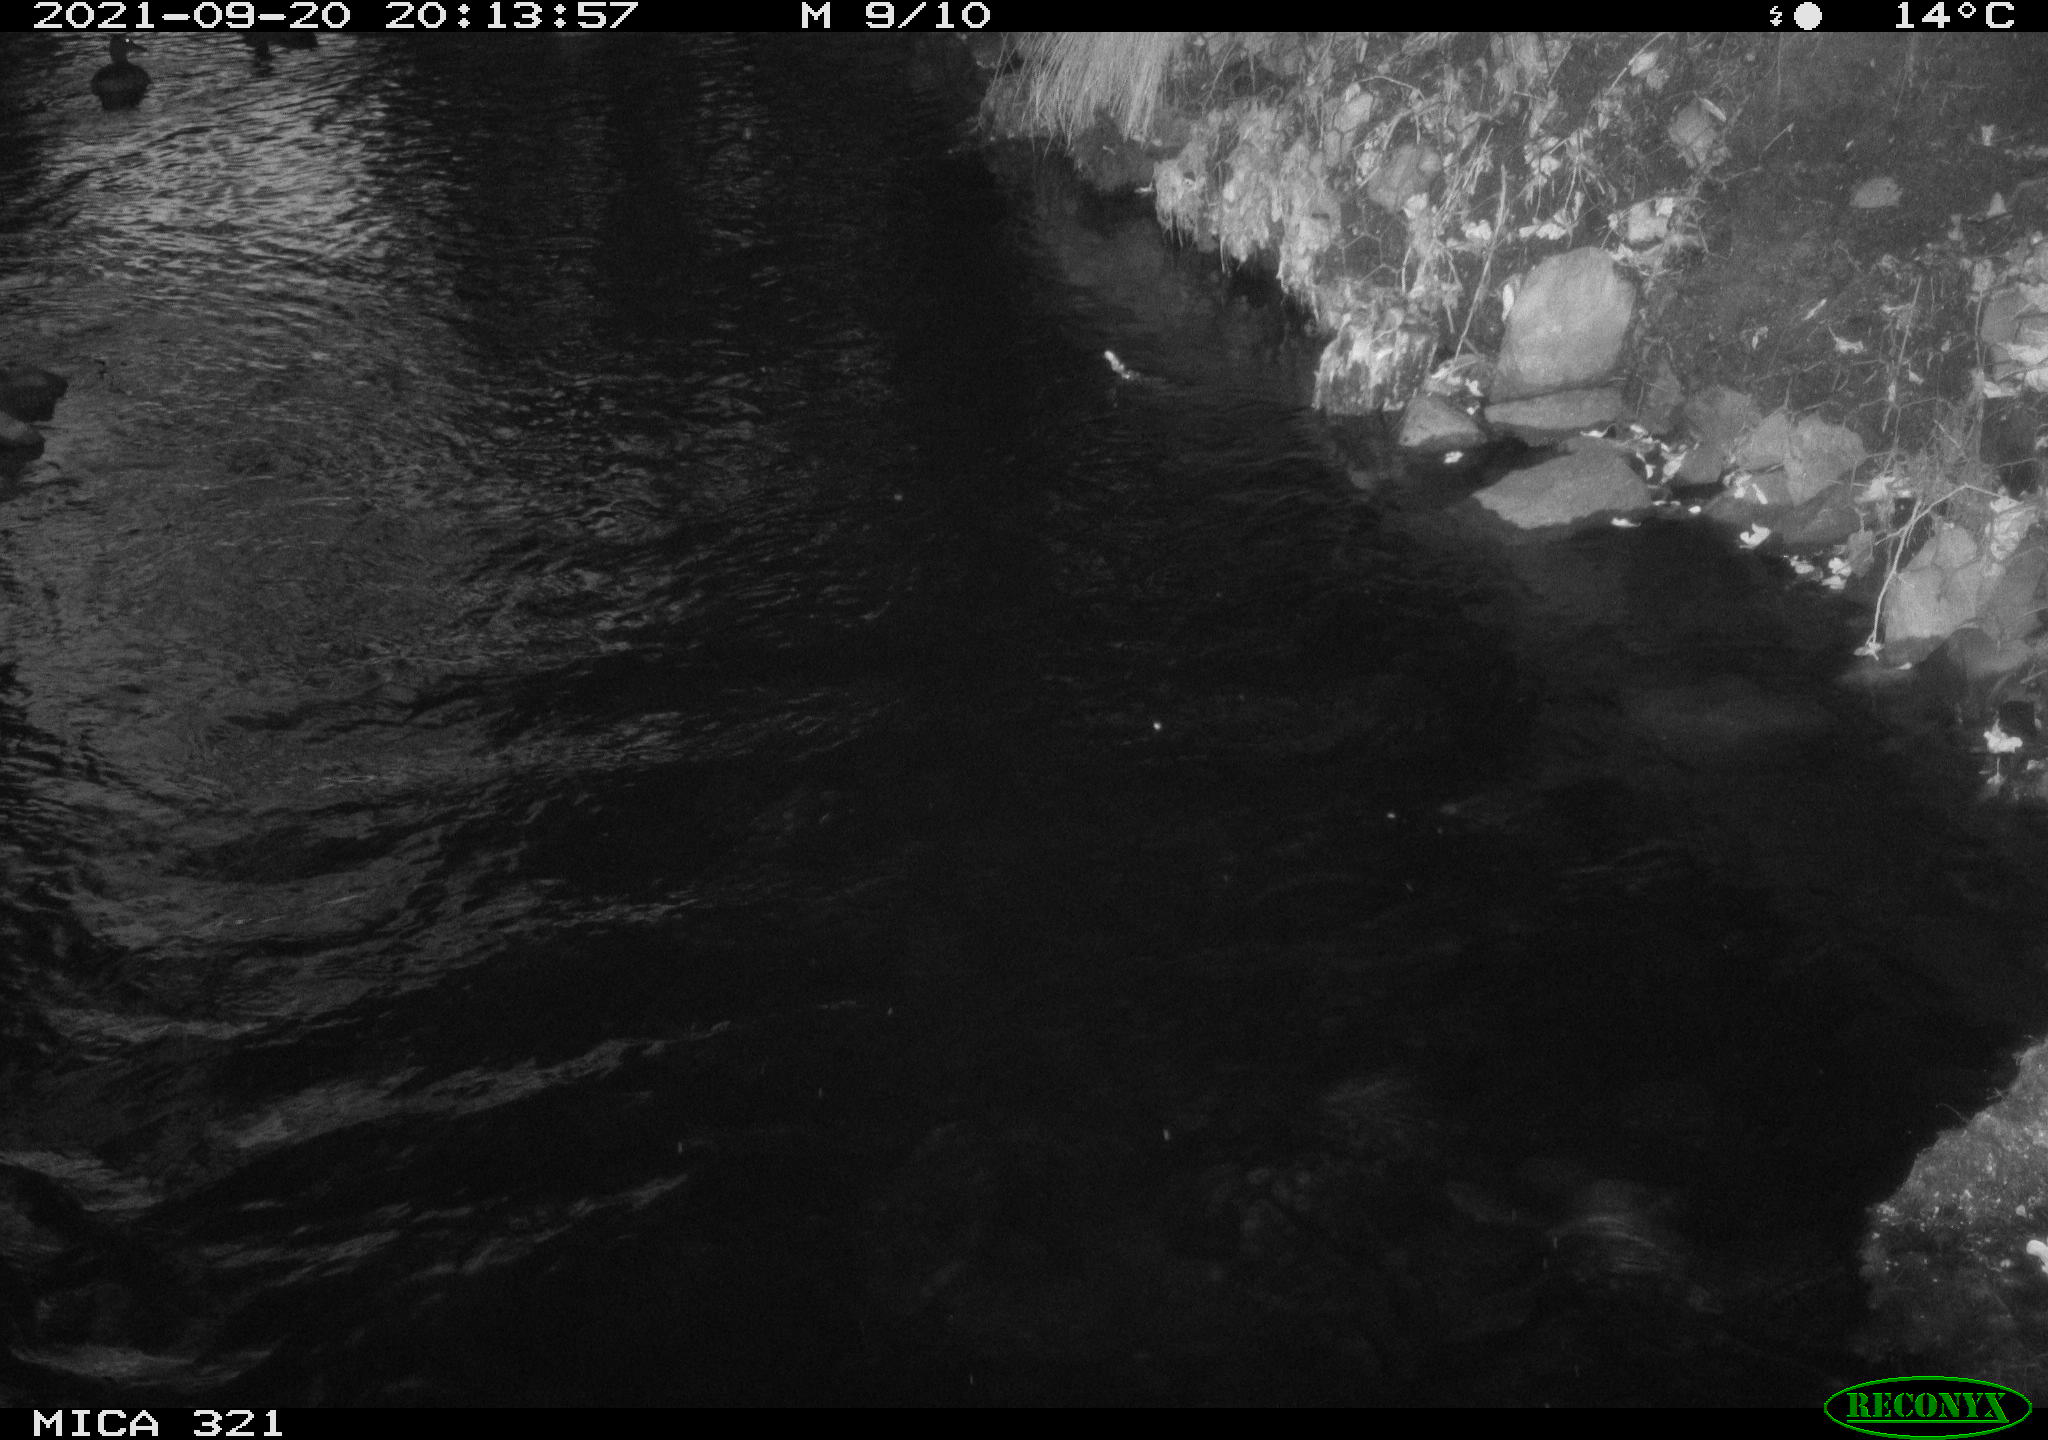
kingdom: Animalia
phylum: Chordata
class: Aves
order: Anseriformes
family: Anatidae
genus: Anas
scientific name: Anas platyrhynchos
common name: Mallard
